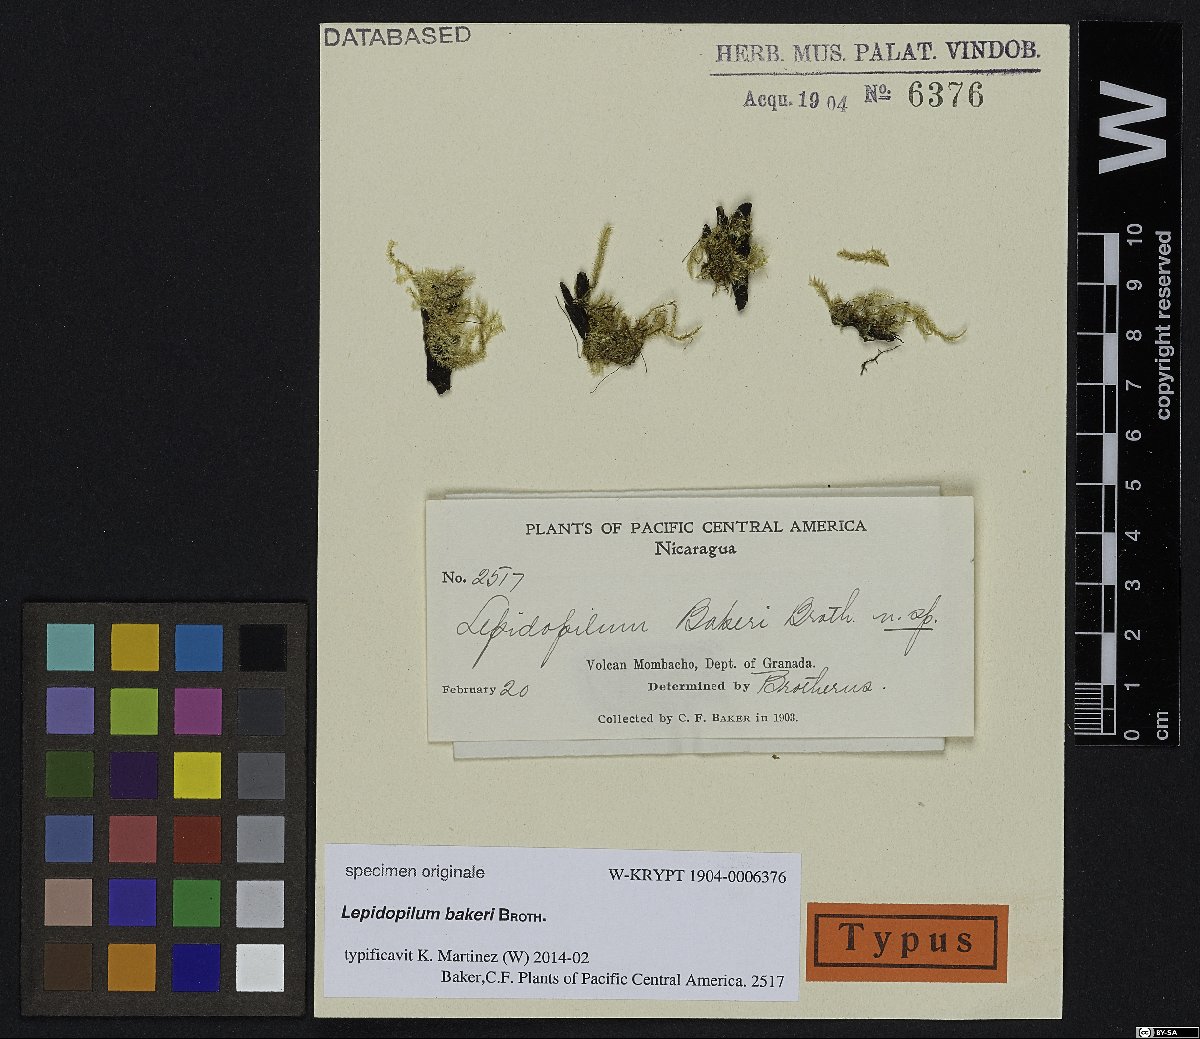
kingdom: Plantae
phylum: Bryophyta
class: Bryopsida
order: Hookeriales
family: Daltoniaceae
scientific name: Daltoniaceae
